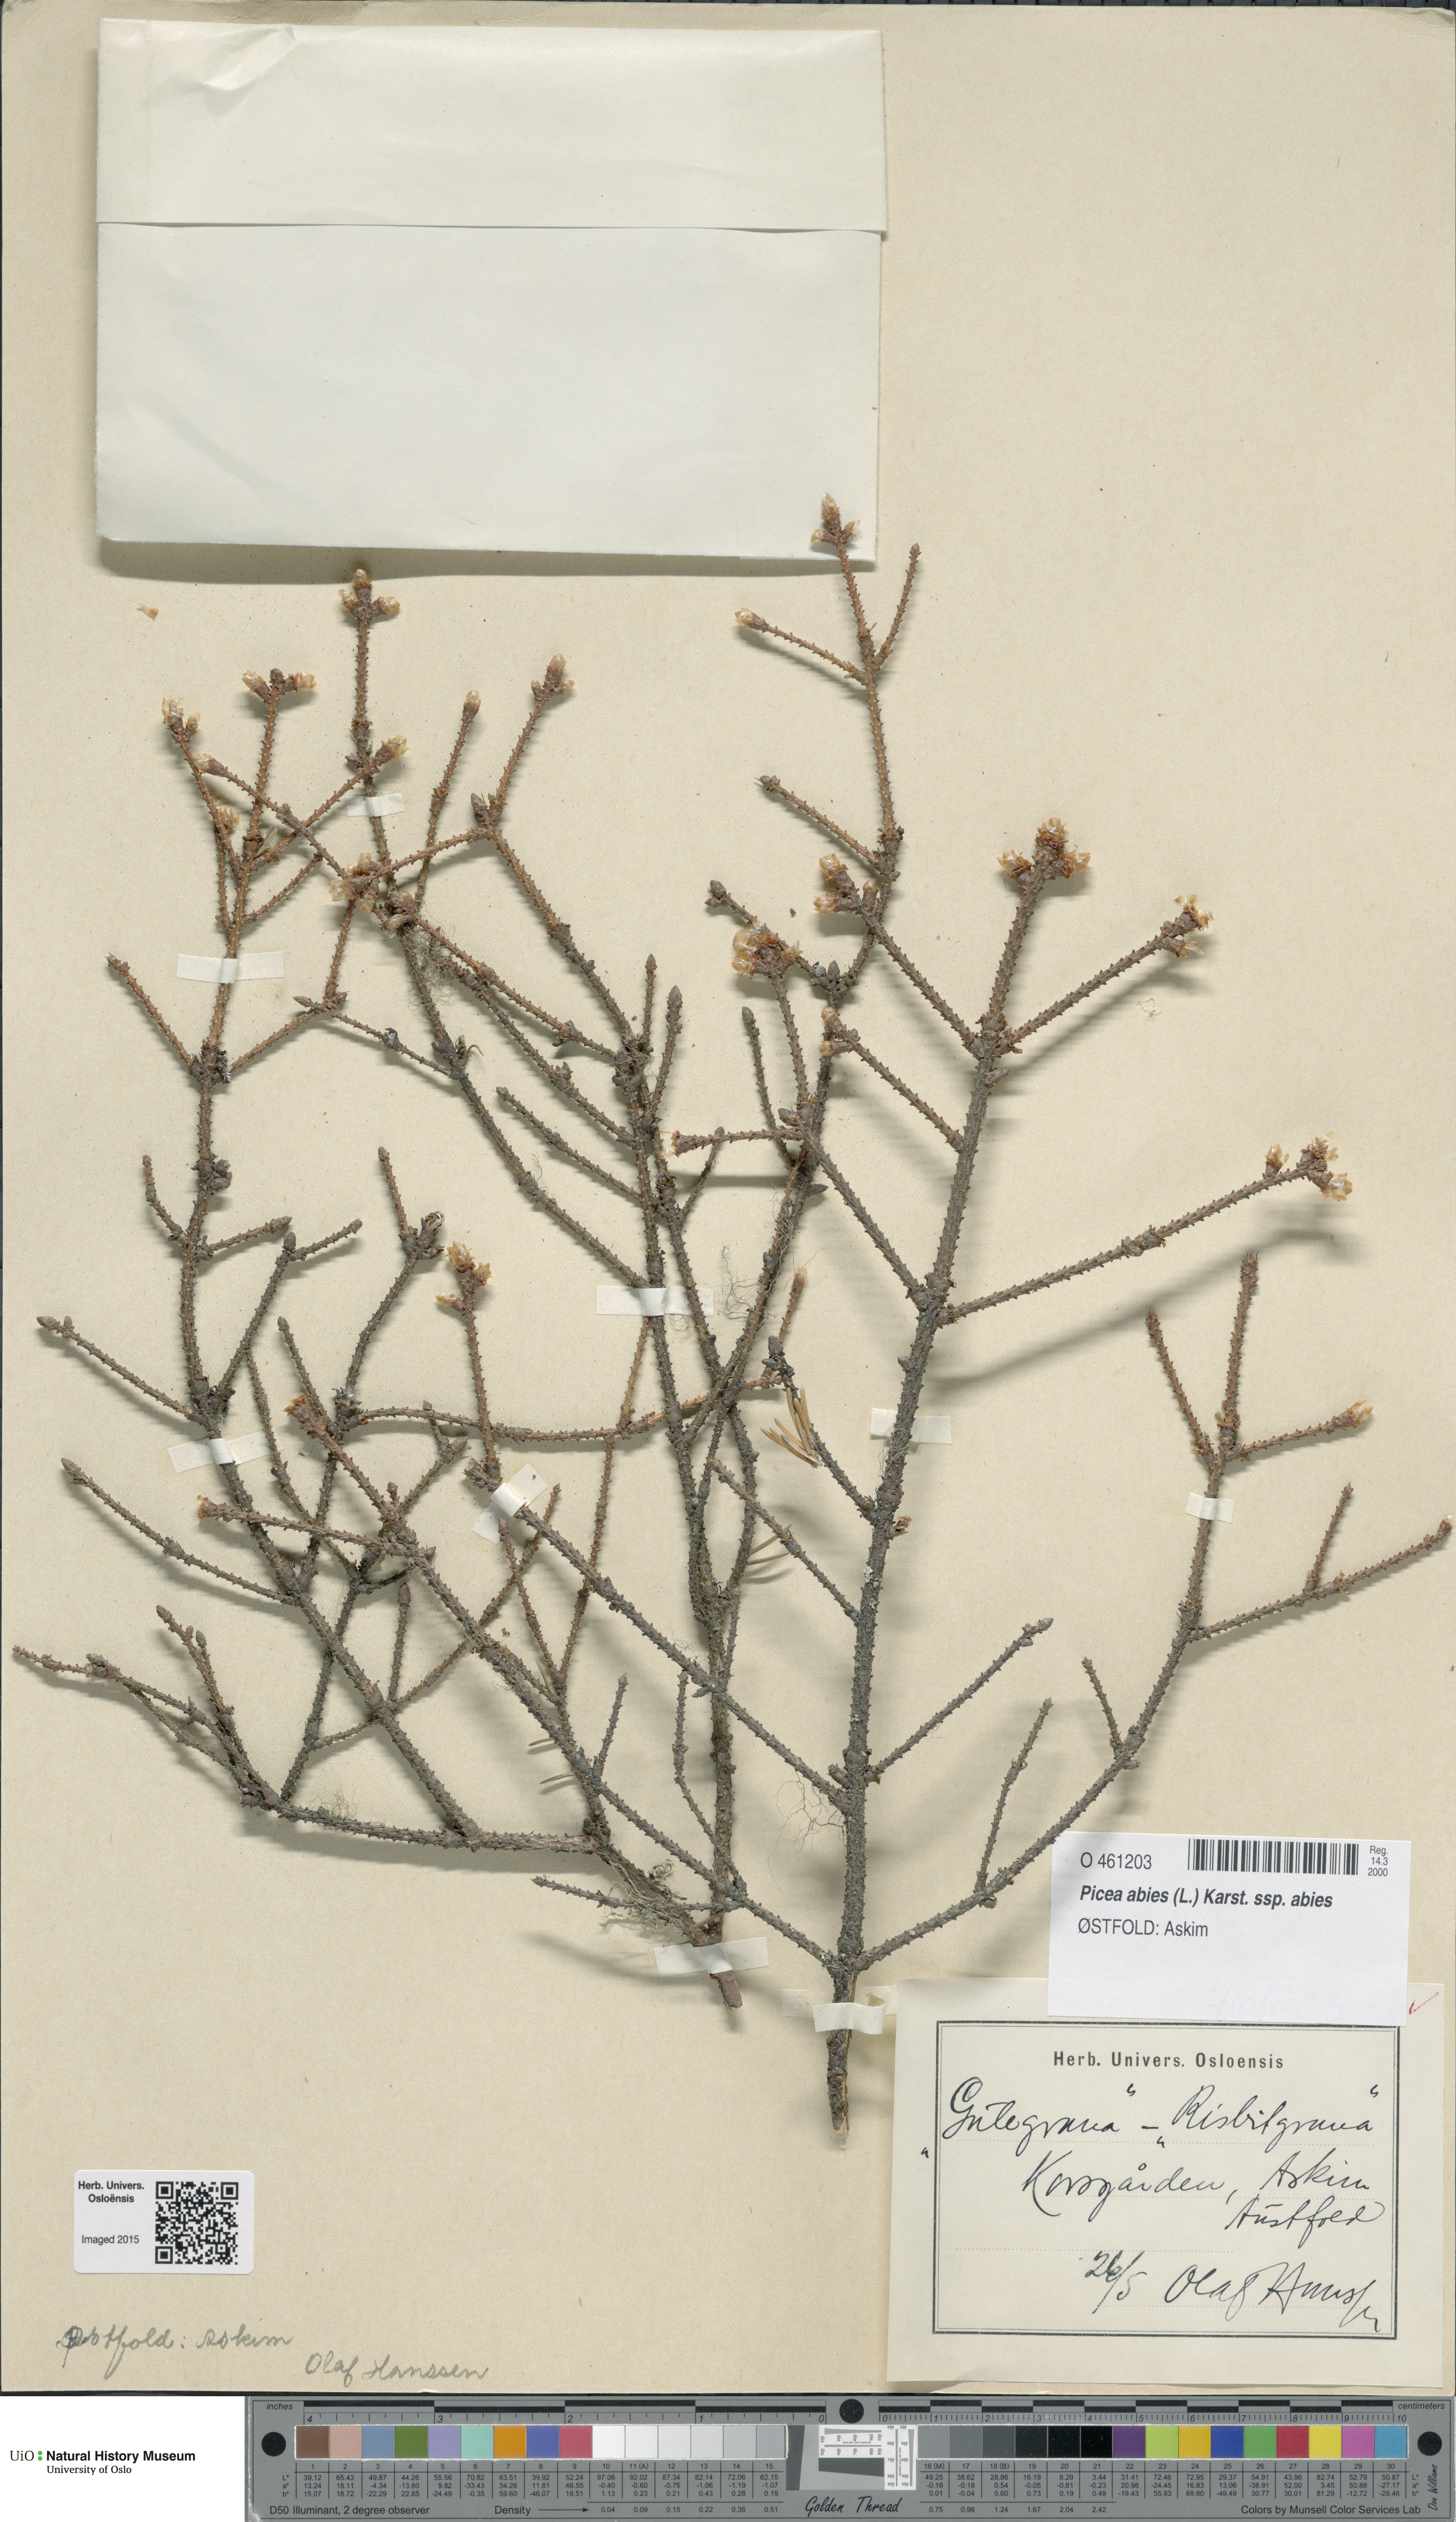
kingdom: Plantae
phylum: Tracheophyta
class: Pinopsida
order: Pinales
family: Pinaceae
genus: Picea
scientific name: Picea abies
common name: Norway spruce
